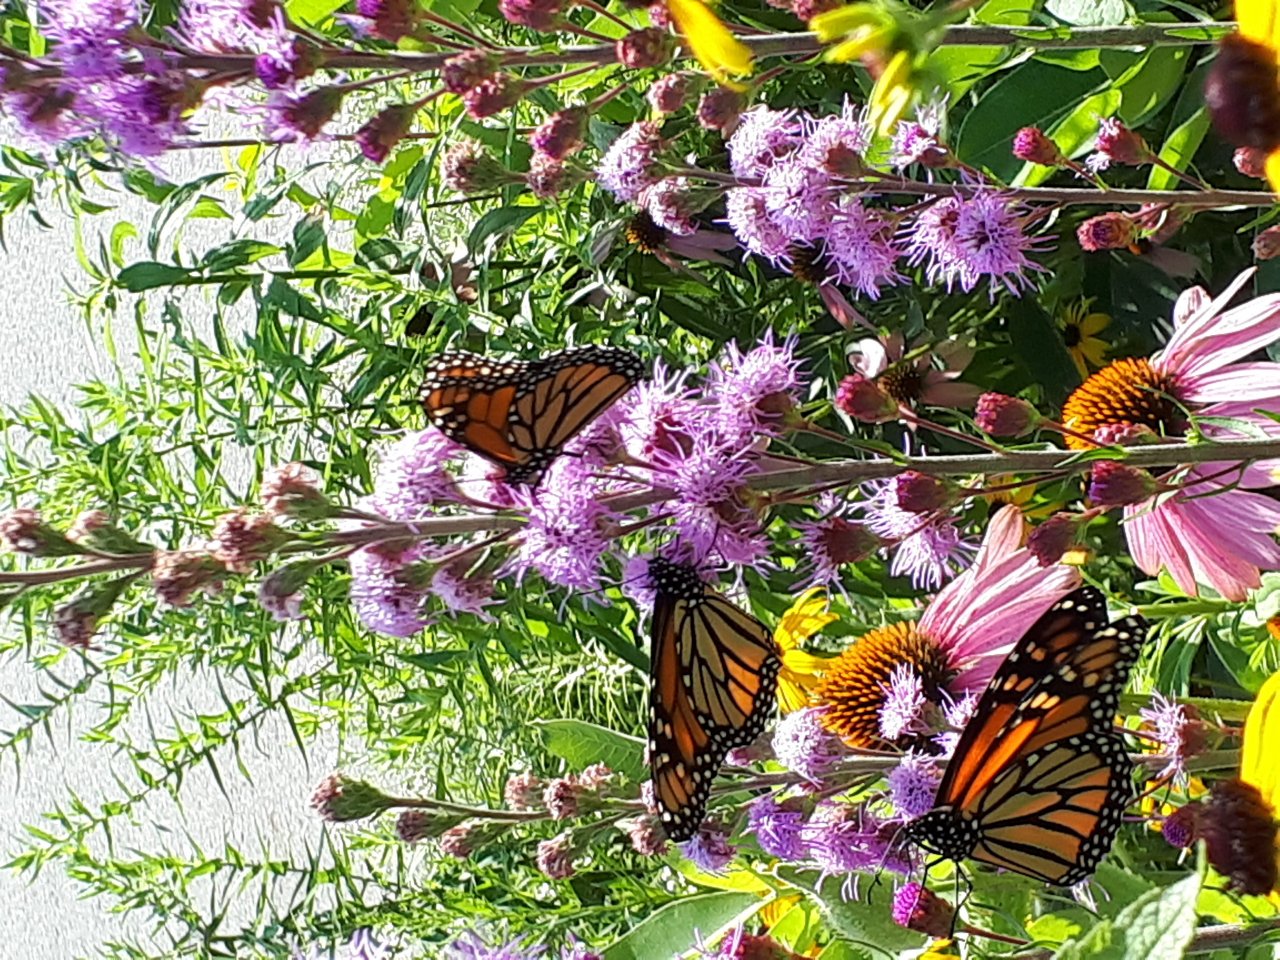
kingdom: Animalia
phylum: Arthropoda
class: Insecta
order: Lepidoptera
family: Nymphalidae
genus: Danaus
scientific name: Danaus plexippus
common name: Monarch
